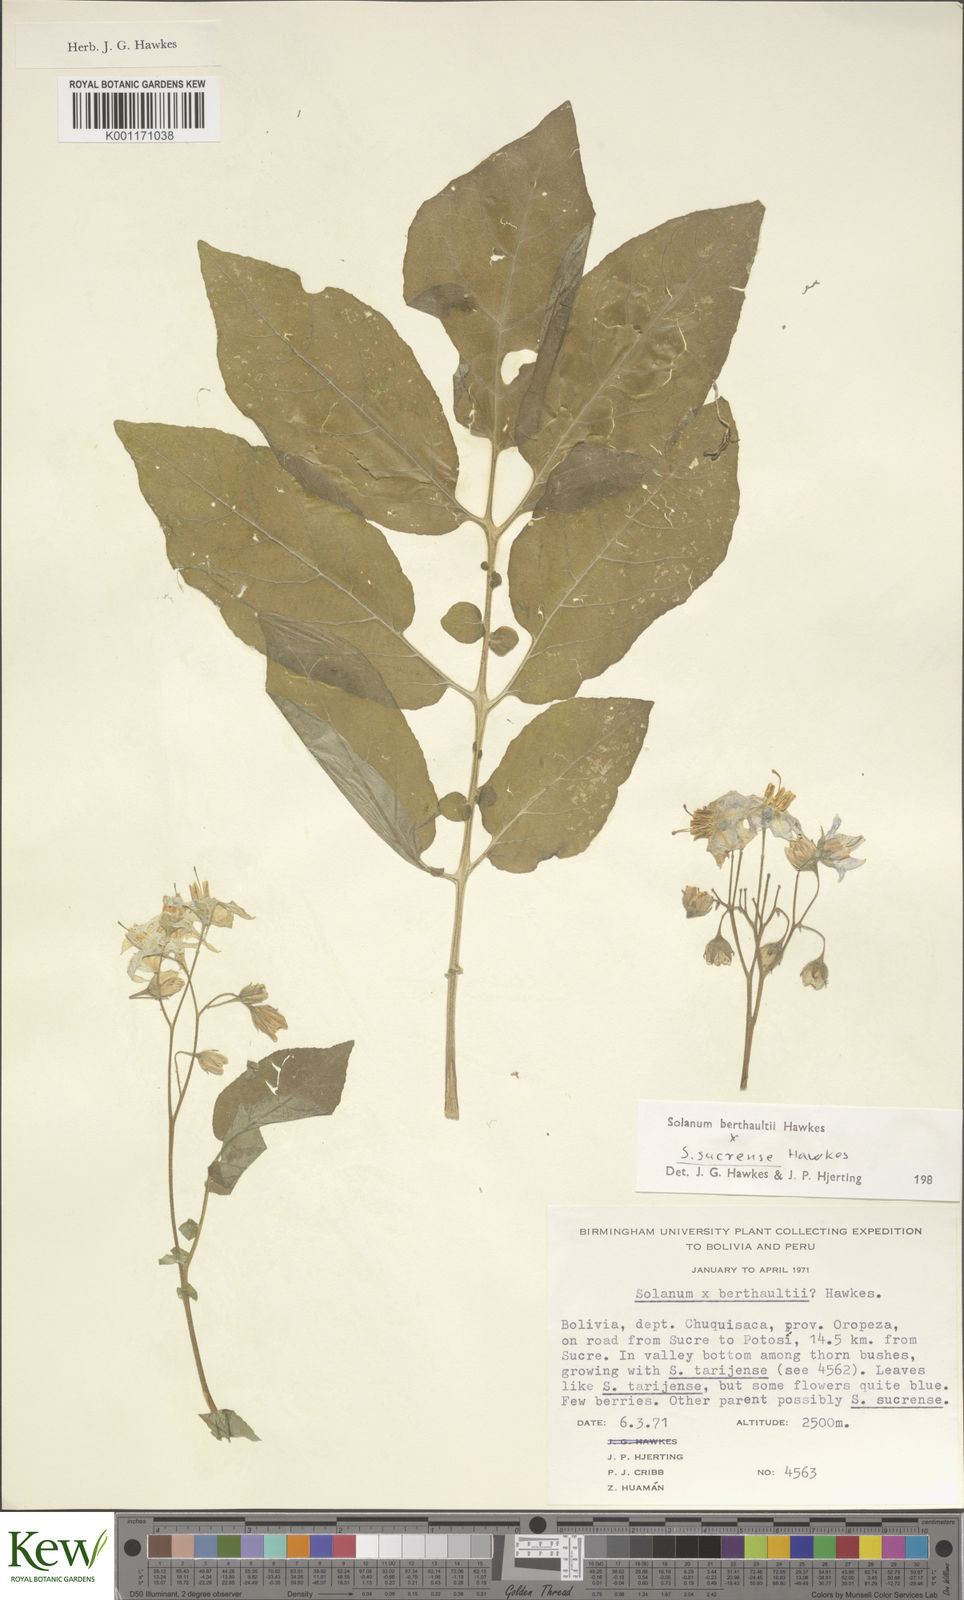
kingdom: Plantae
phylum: Tracheophyta
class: Magnoliopsida
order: Solanales
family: Solanaceae
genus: Solanum
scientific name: Solanum berthaultii
